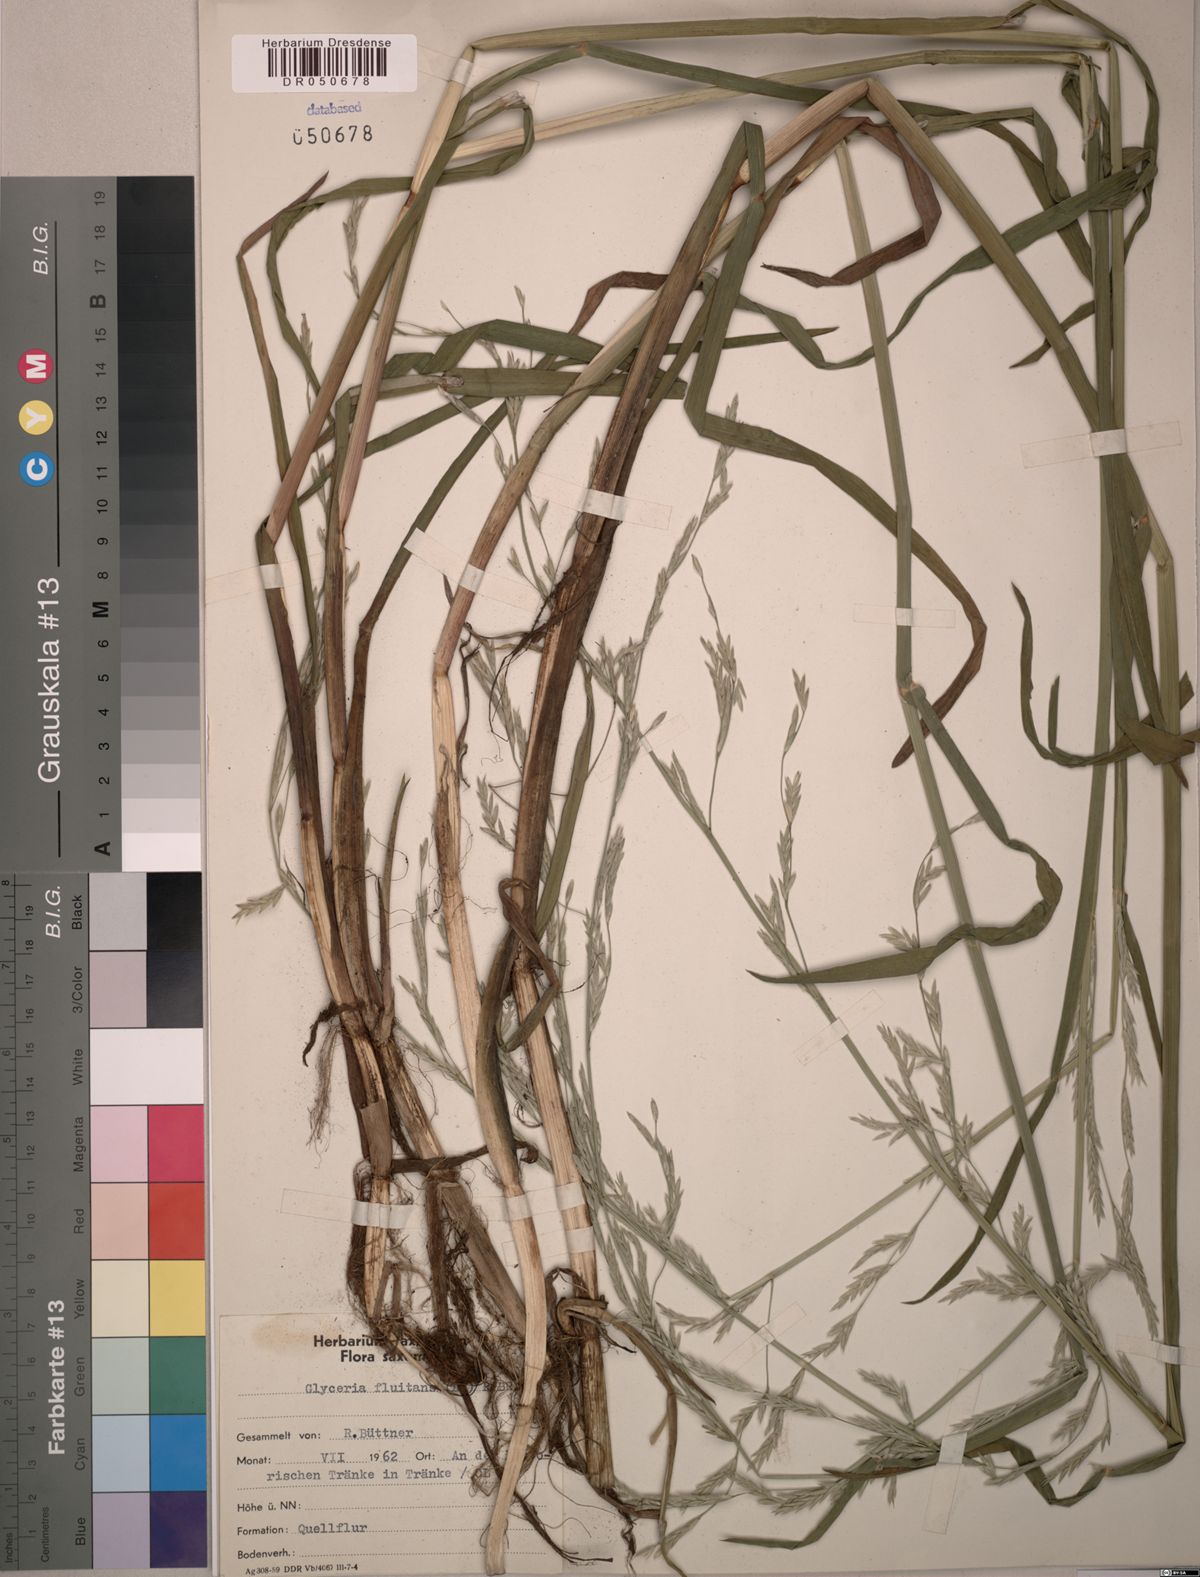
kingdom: Plantae
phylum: Tracheophyta
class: Liliopsida
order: Poales
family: Poaceae
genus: Glyceria
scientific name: Glyceria fluitans
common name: Floating sweet-grass
